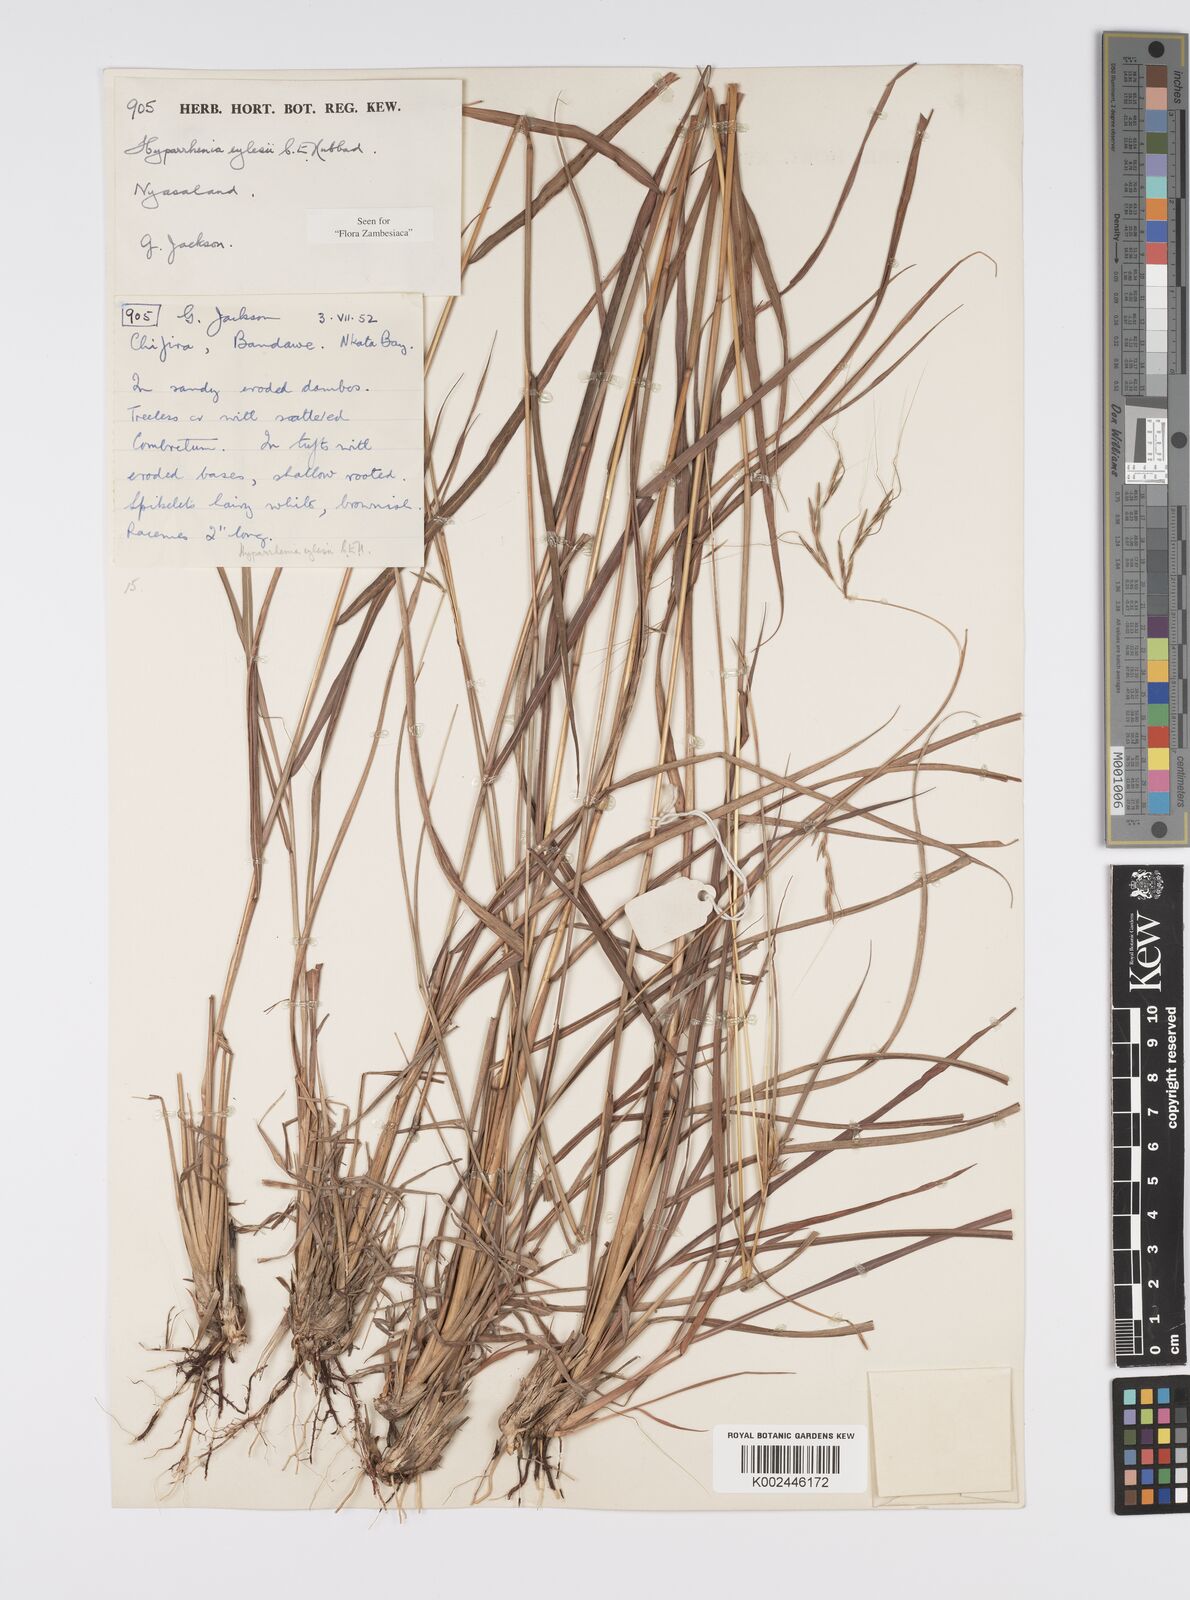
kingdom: Plantae
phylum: Tracheophyta
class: Liliopsida
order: Poales
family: Poaceae
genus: Elymandra
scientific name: Elymandra grallata
